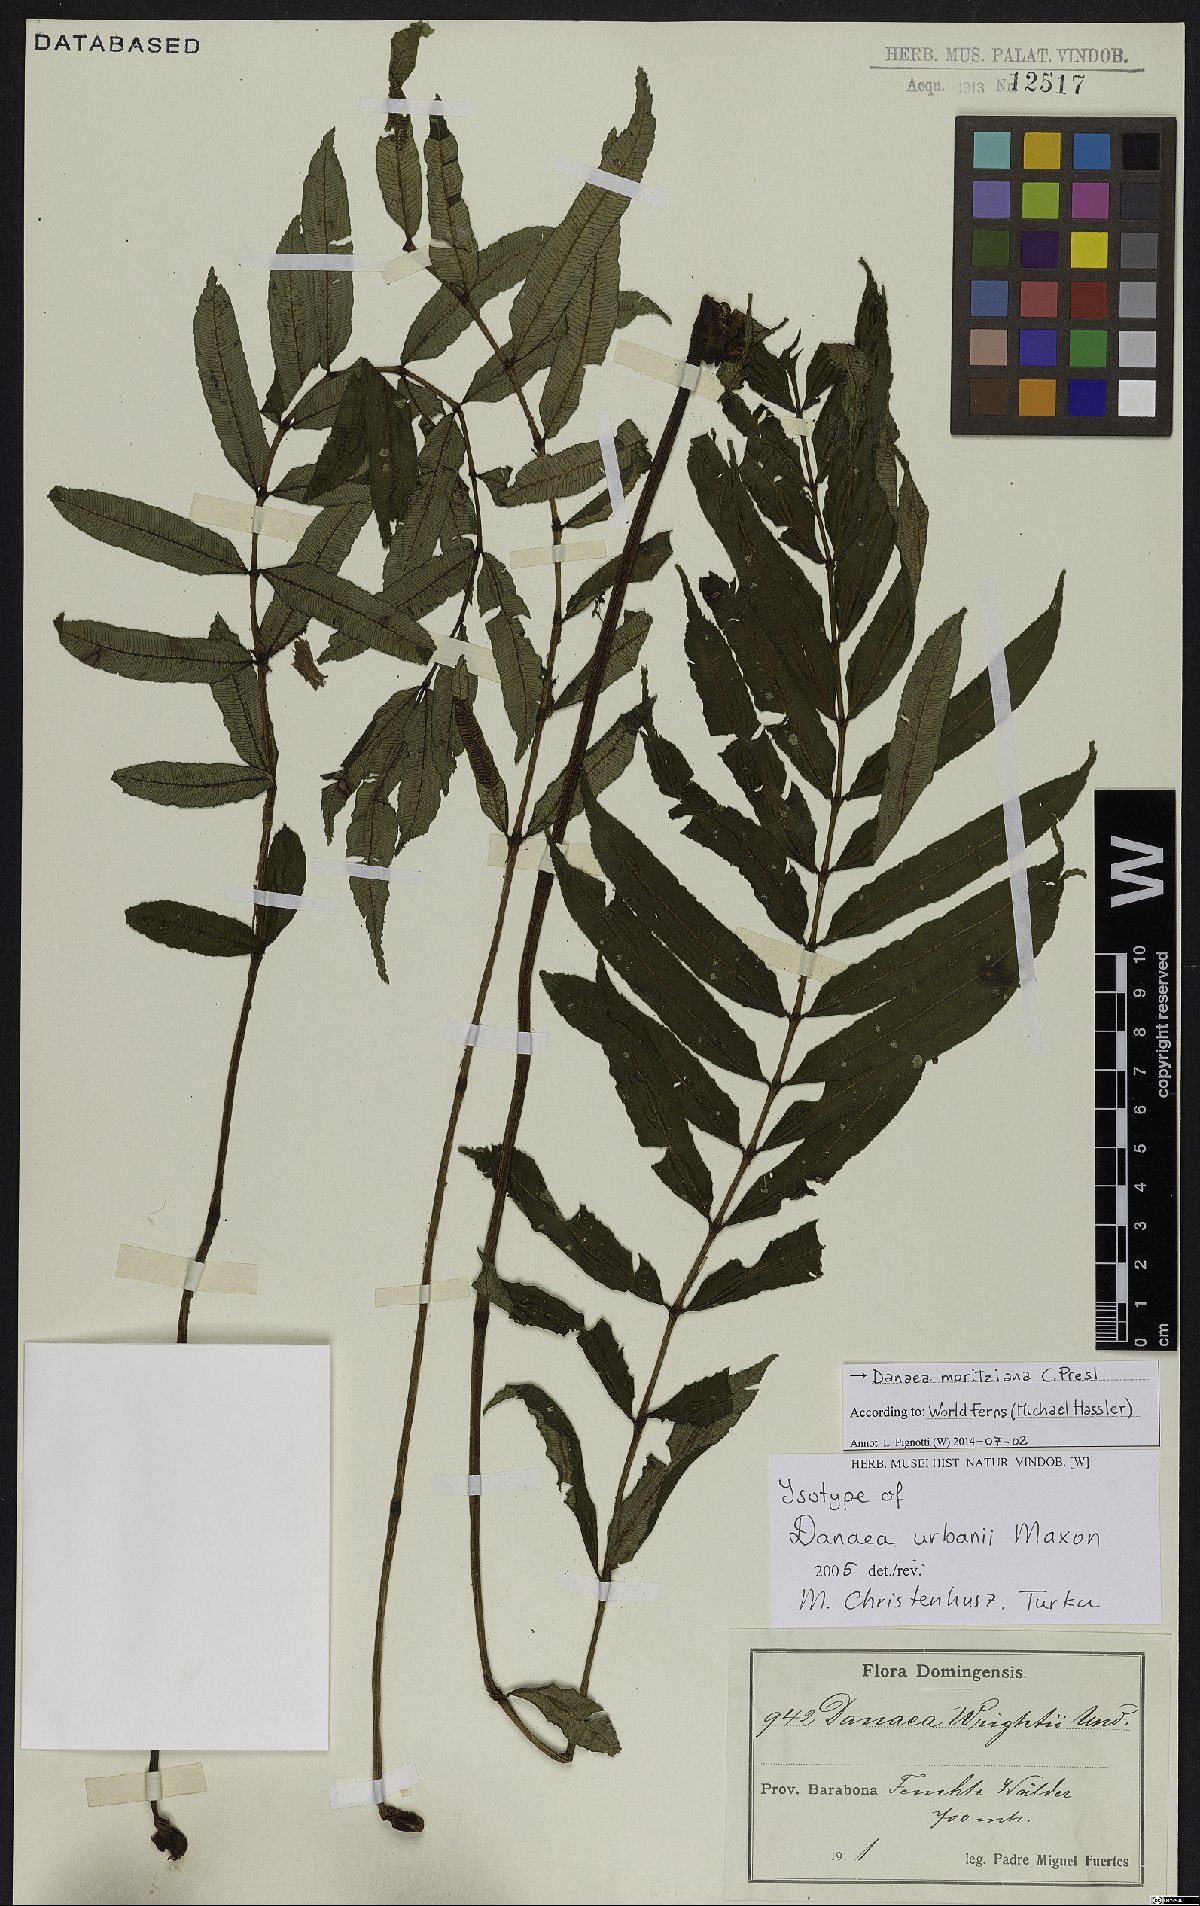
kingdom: Plantae
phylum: Tracheophyta
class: Polypodiopsida
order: Marattiales
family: Marattiaceae
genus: Danaea
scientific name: Danaea moritziana
